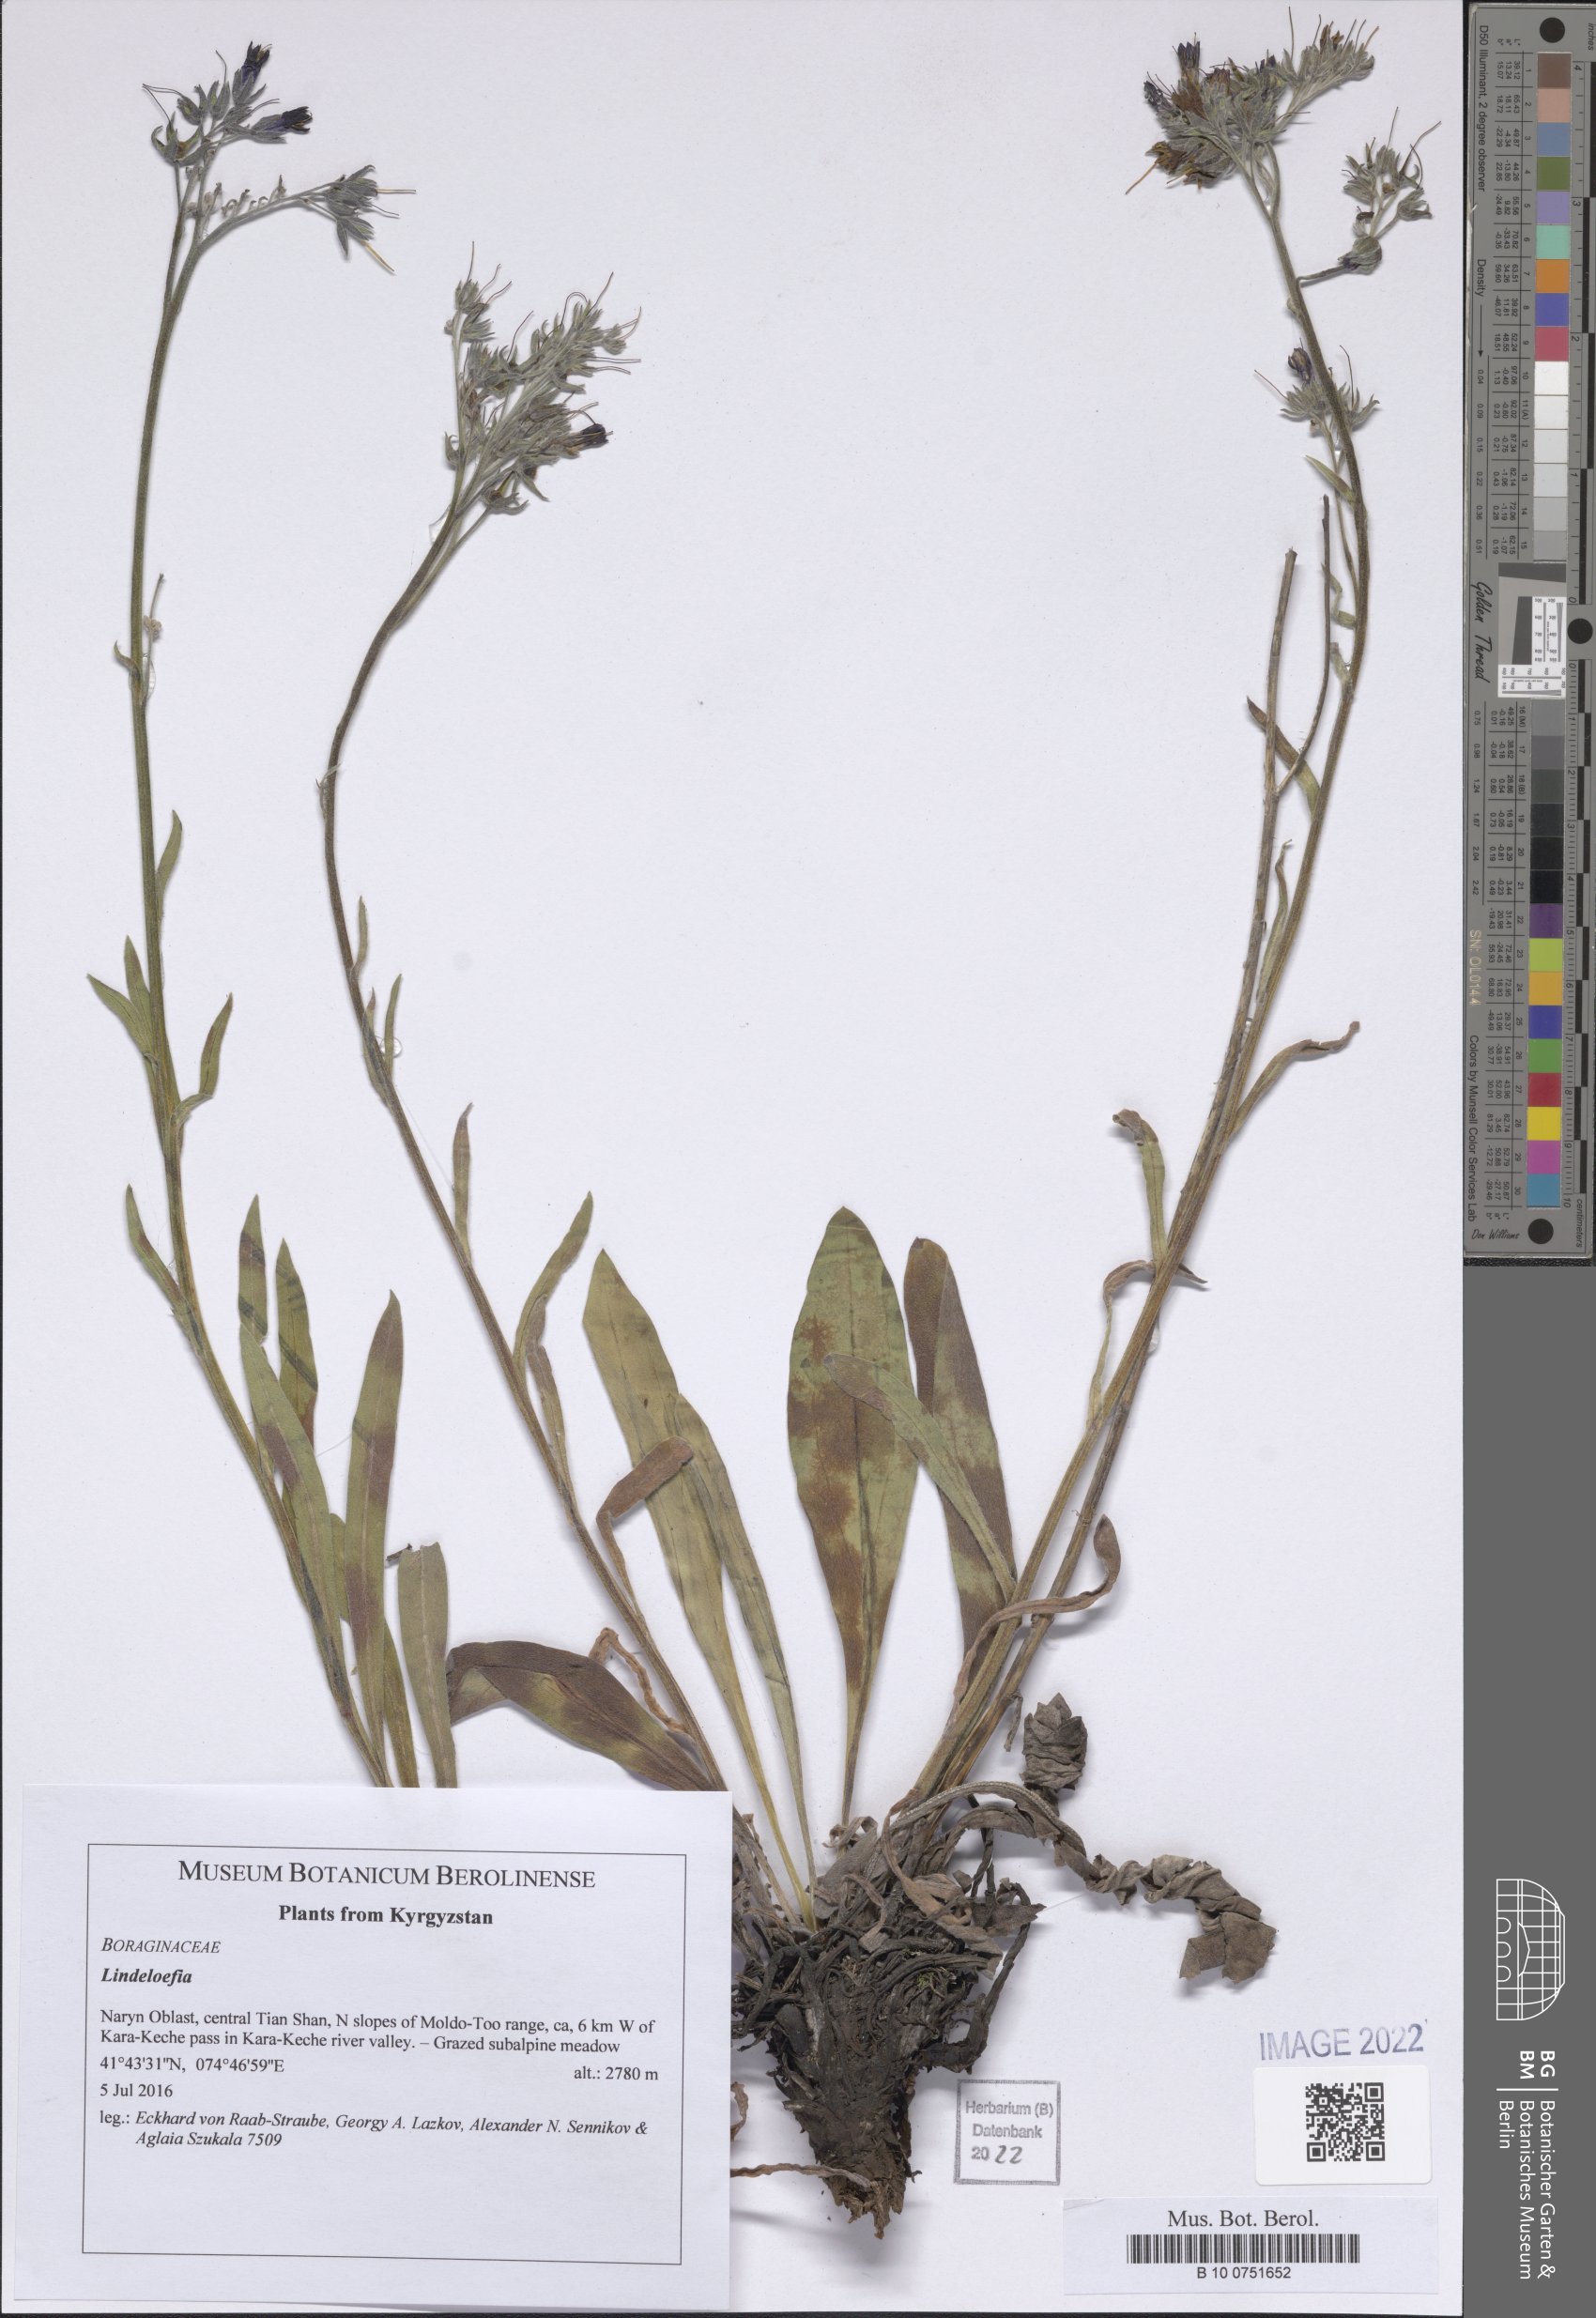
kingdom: Plantae
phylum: Tracheophyta
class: Magnoliopsida
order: Boraginales
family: Boraginaceae
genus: Lindelofia
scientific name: Lindelofia
